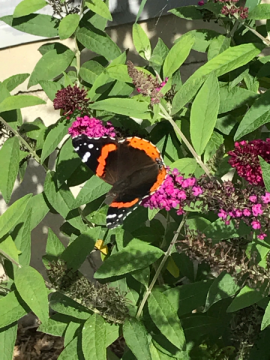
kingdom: Animalia
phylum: Arthropoda
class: Insecta
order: Lepidoptera
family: Nymphalidae
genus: Vanessa
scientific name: Vanessa atalanta
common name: Red Admiral
